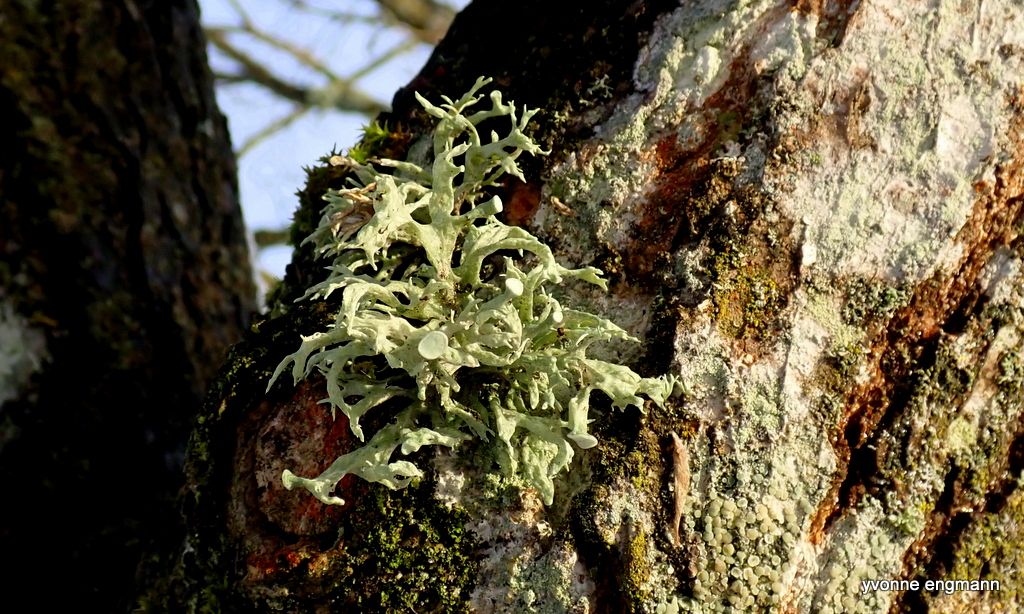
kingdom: Fungi
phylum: Ascomycota
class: Lecanoromycetes
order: Lecanorales
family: Ramalinaceae
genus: Ramalina
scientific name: Ramalina fastigiata
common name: tue-grenlav
